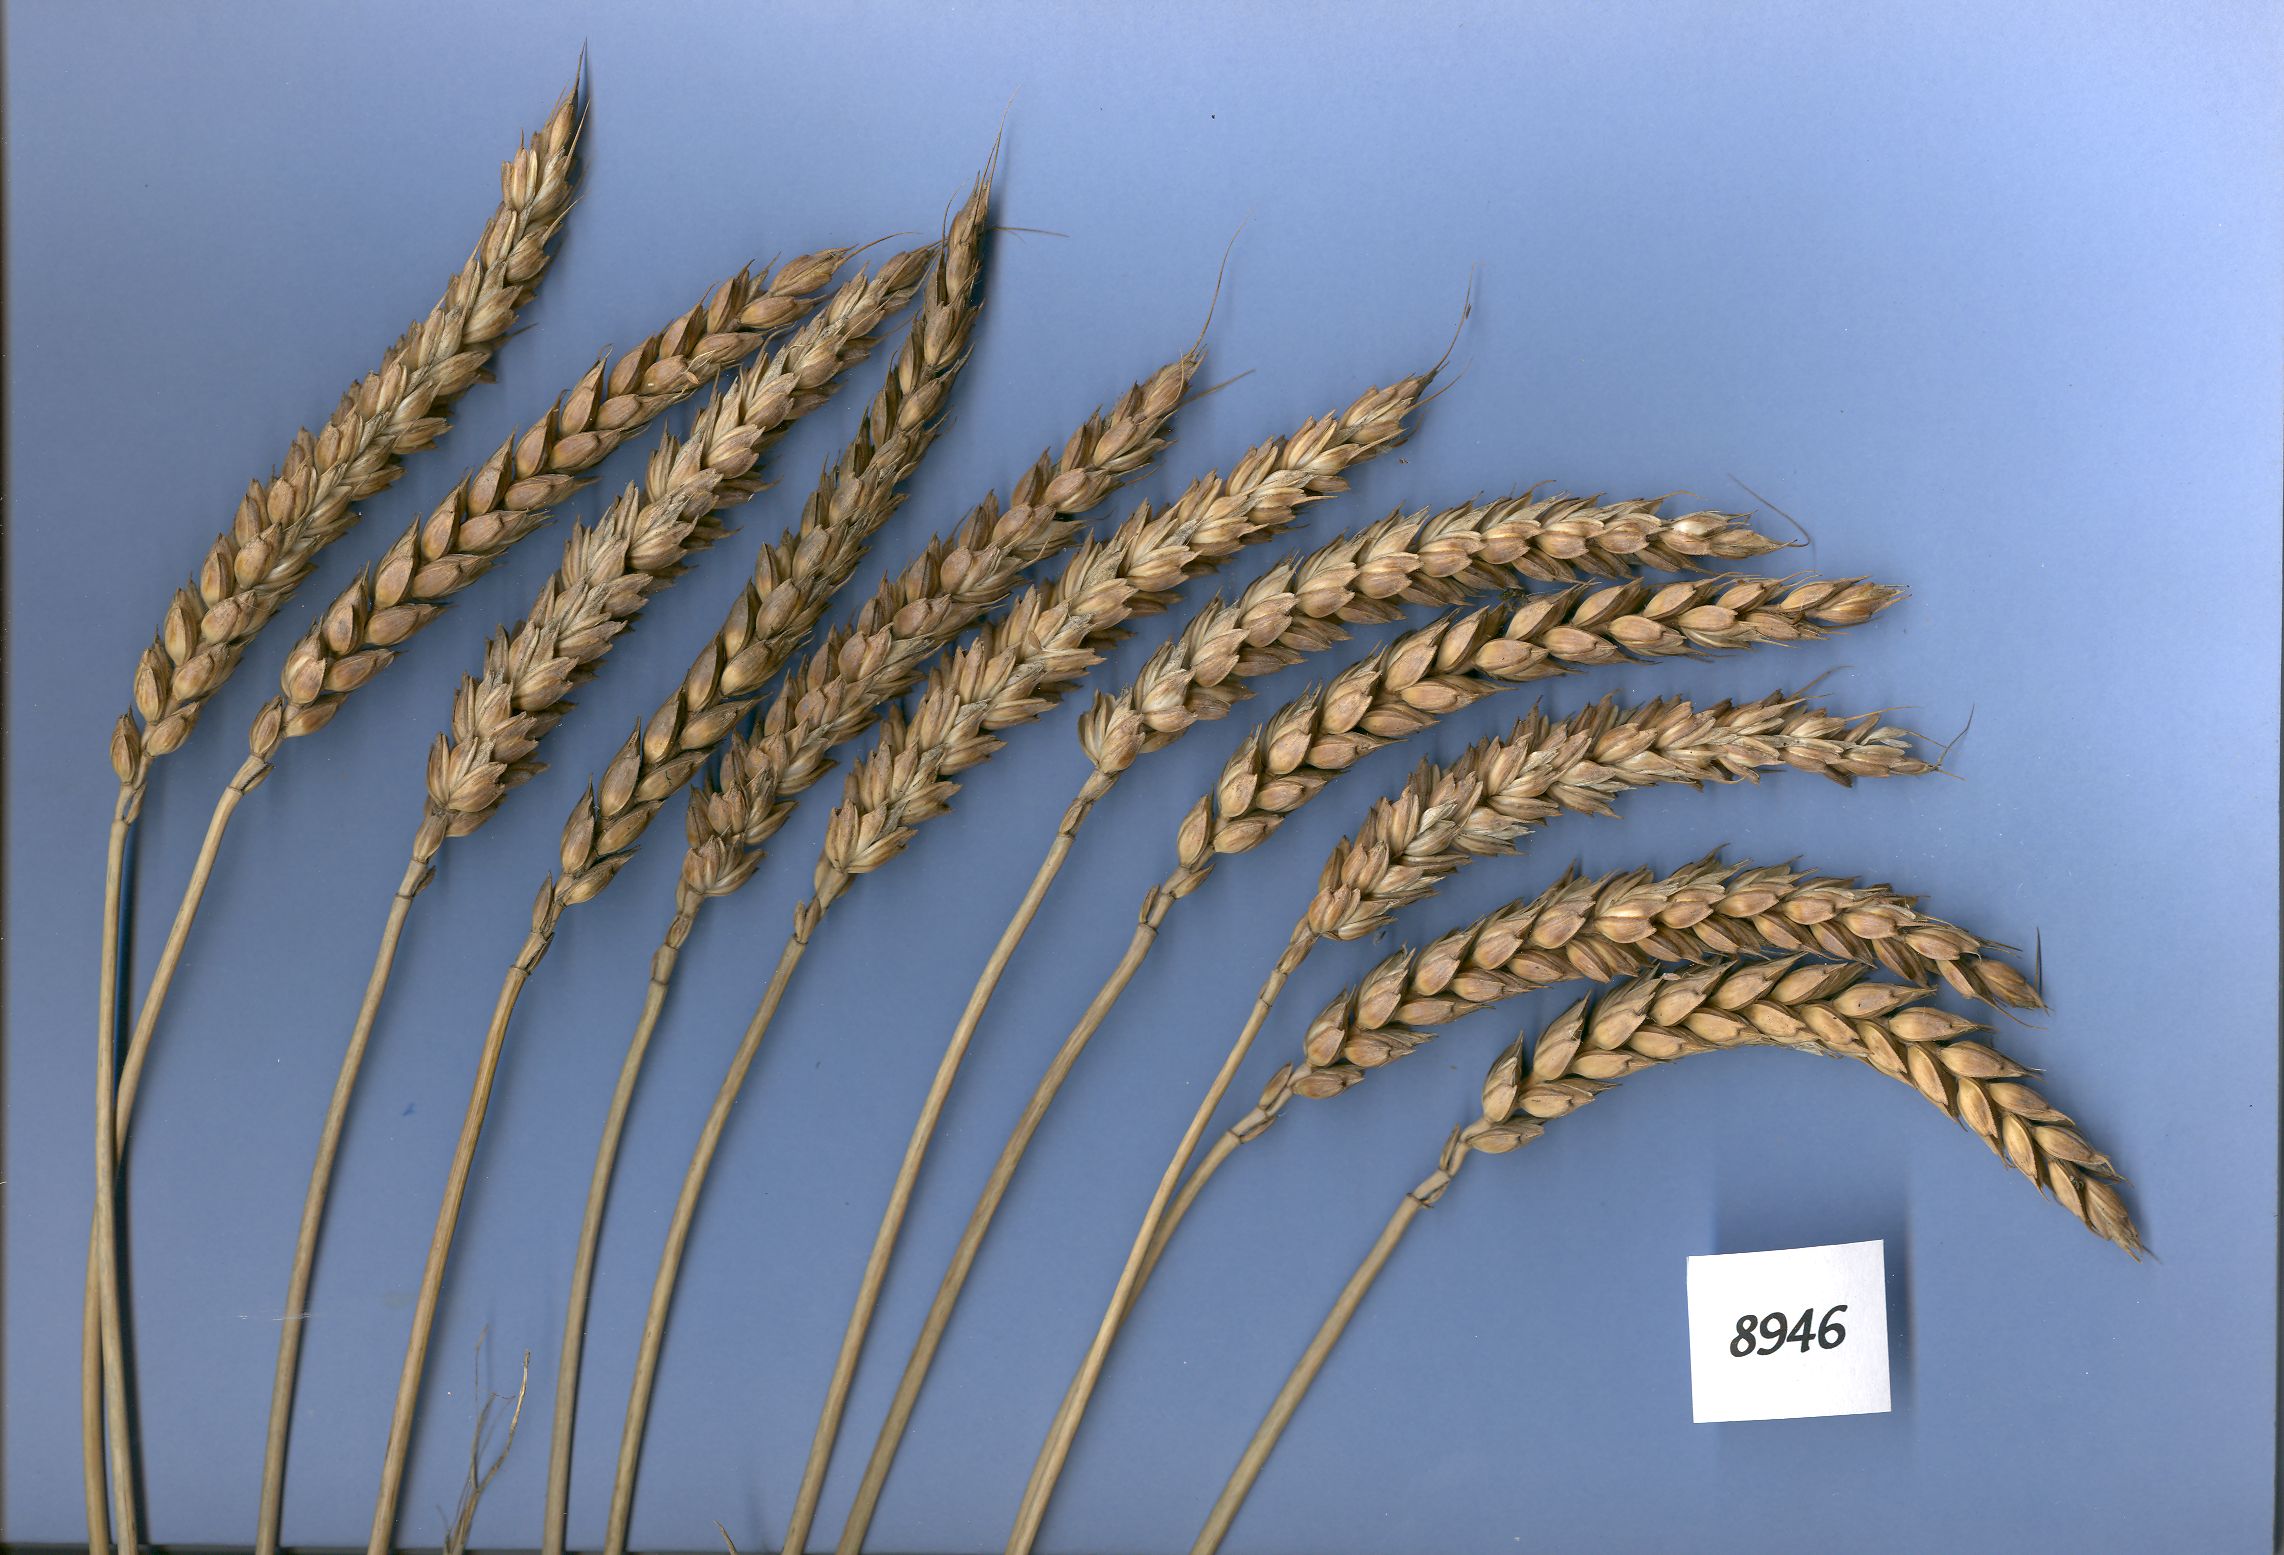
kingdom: Plantae
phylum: Tracheophyta
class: Liliopsida
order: Poales
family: Poaceae
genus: Triticum
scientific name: Triticum aestivum
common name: Common wheat
